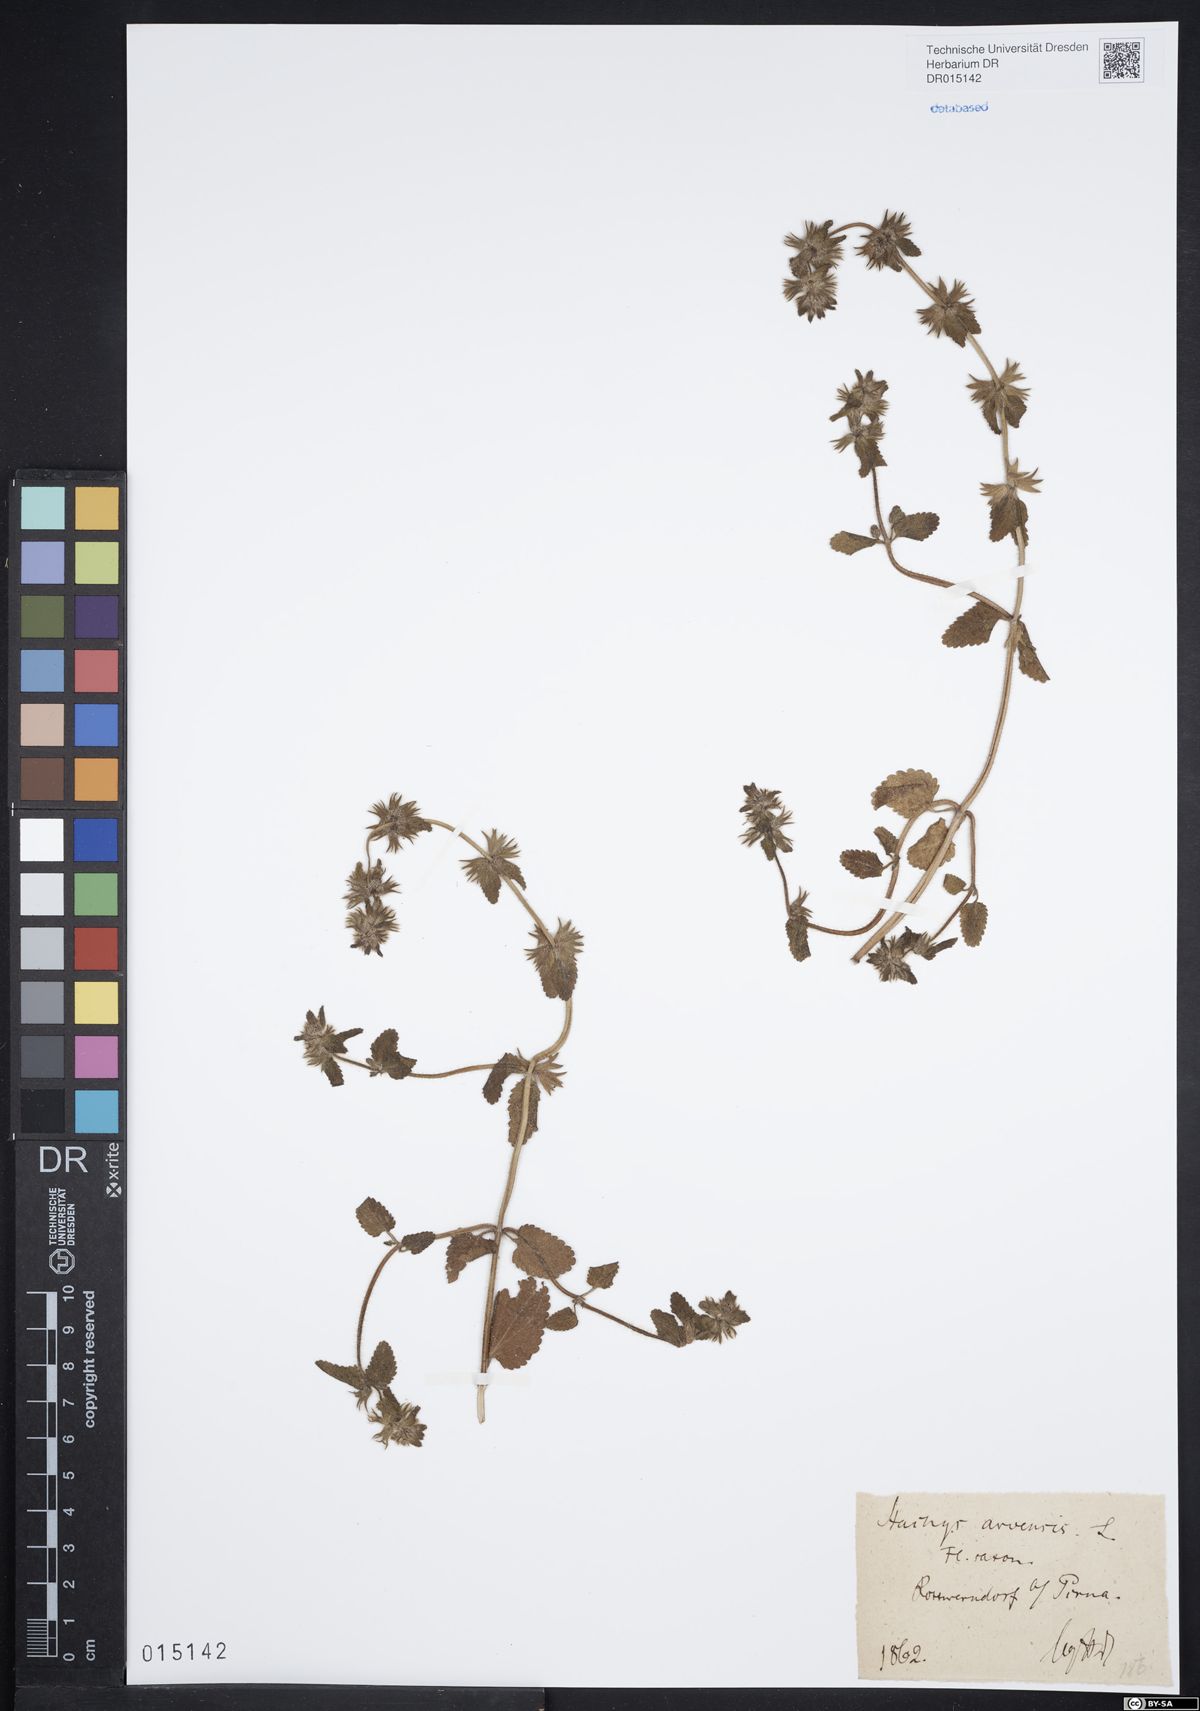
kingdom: Plantae
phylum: Tracheophyta
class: Magnoliopsida
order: Lamiales
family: Lamiaceae
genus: Stachys
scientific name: Stachys arvensis
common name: Field woundwort
